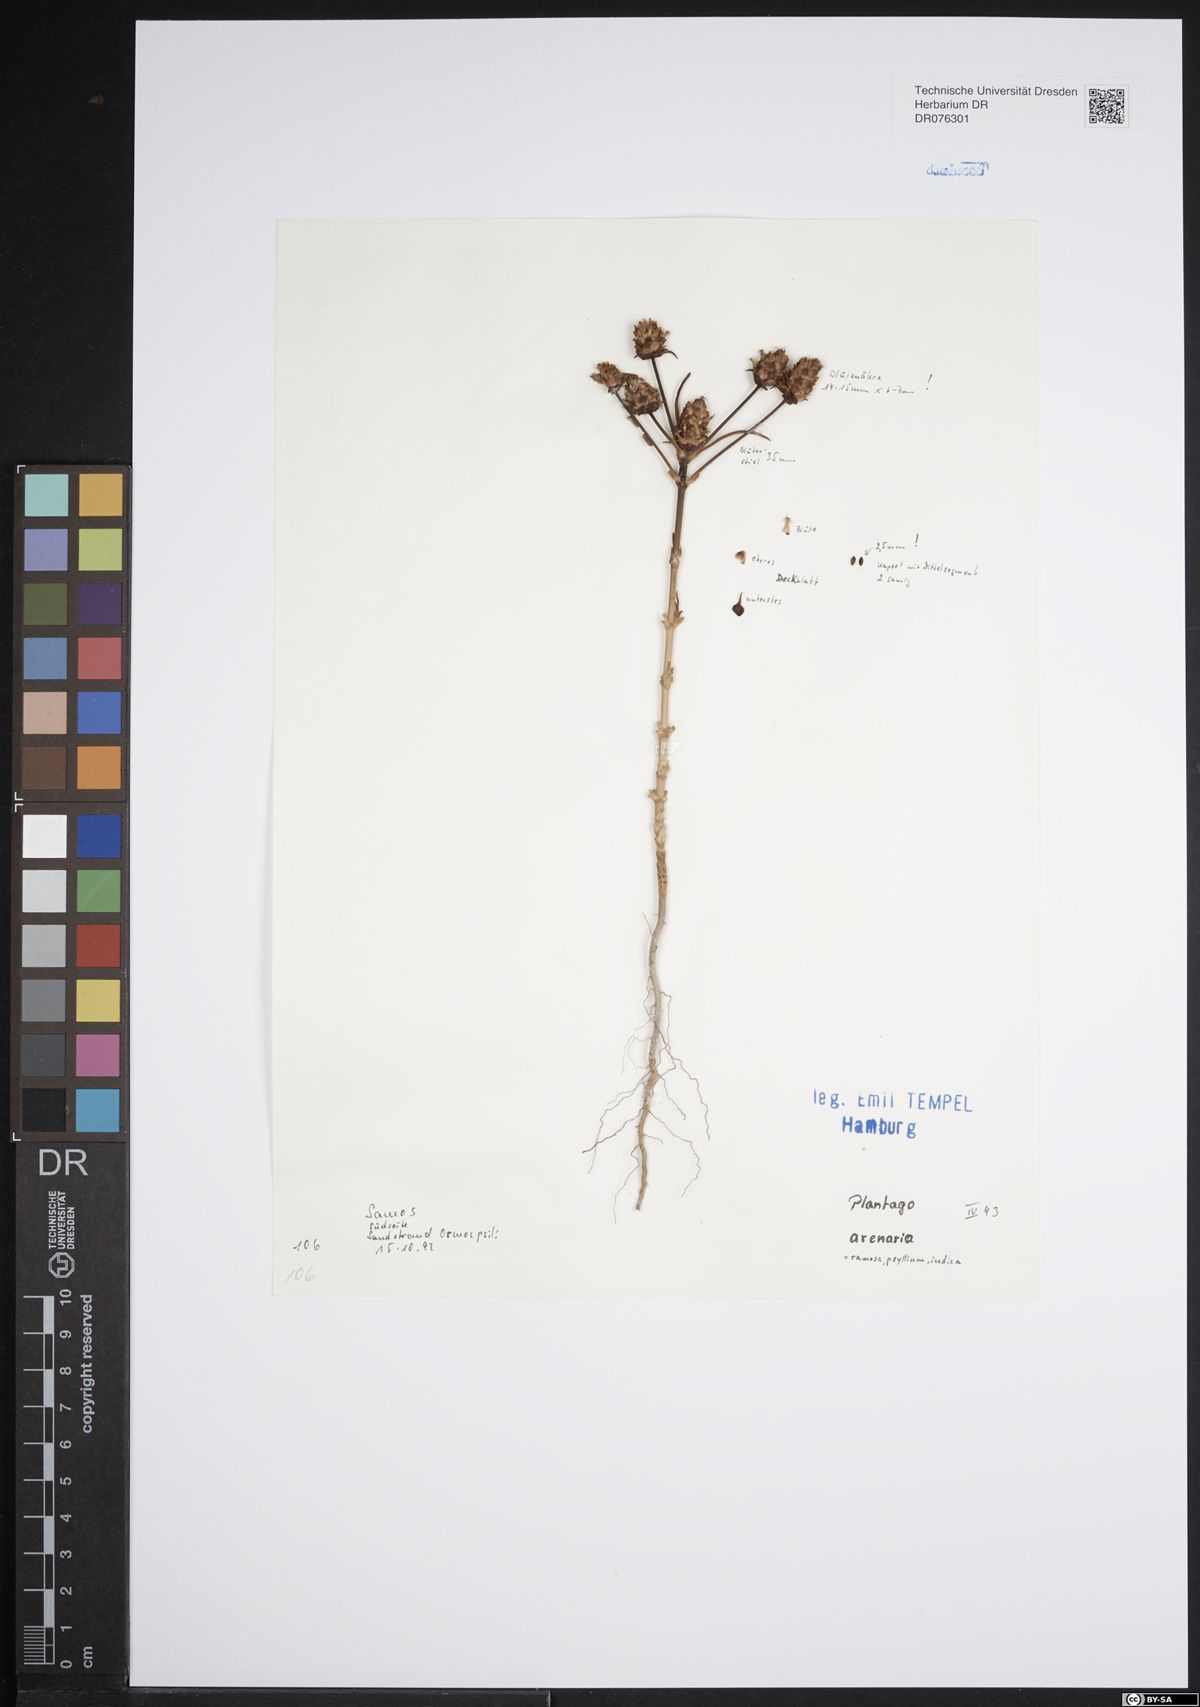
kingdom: Plantae
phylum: Tracheophyta
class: Magnoliopsida
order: Lamiales
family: Plantaginaceae
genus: Plantago
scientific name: Plantago arenaria
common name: Branched plantain
